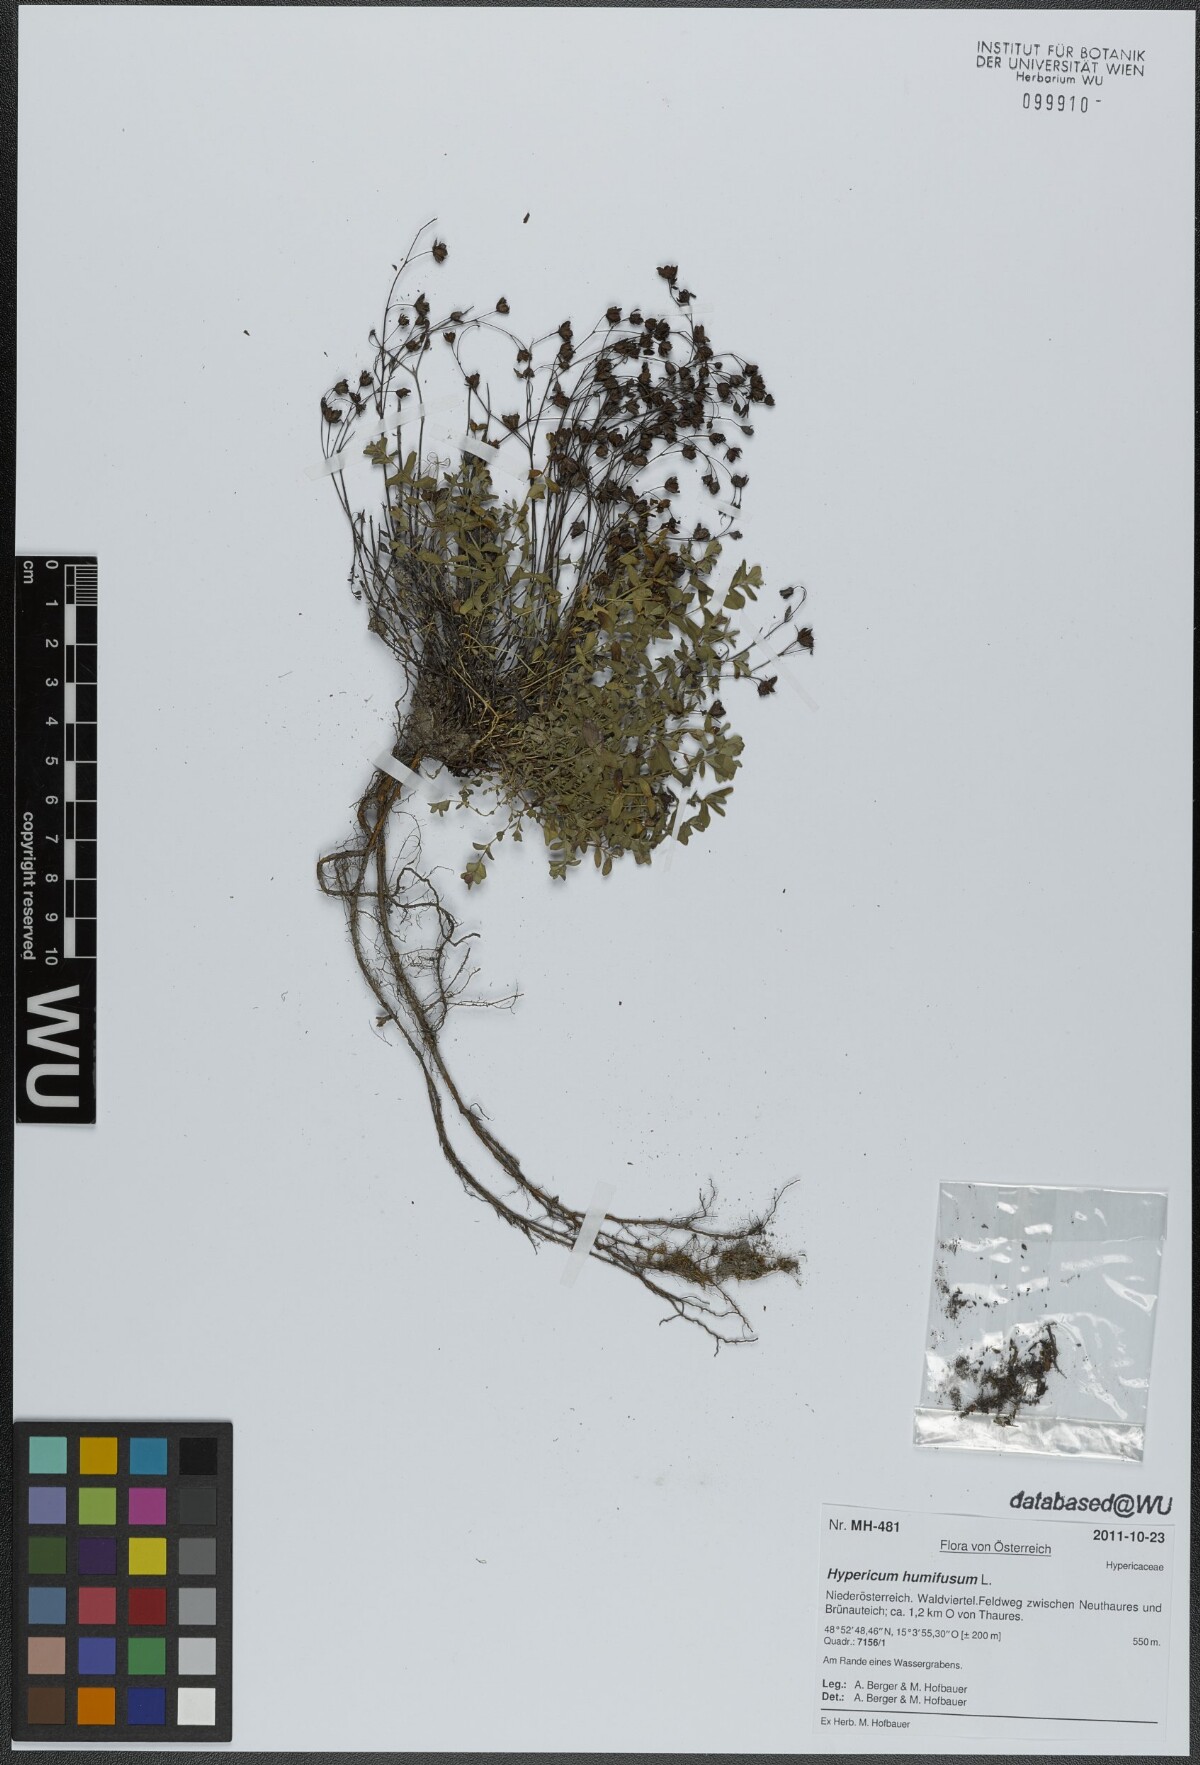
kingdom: Plantae
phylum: Tracheophyta
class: Magnoliopsida
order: Malpighiales
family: Hypericaceae
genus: Hypericum
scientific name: Hypericum humifusum
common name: Trailing st. john's-wort
